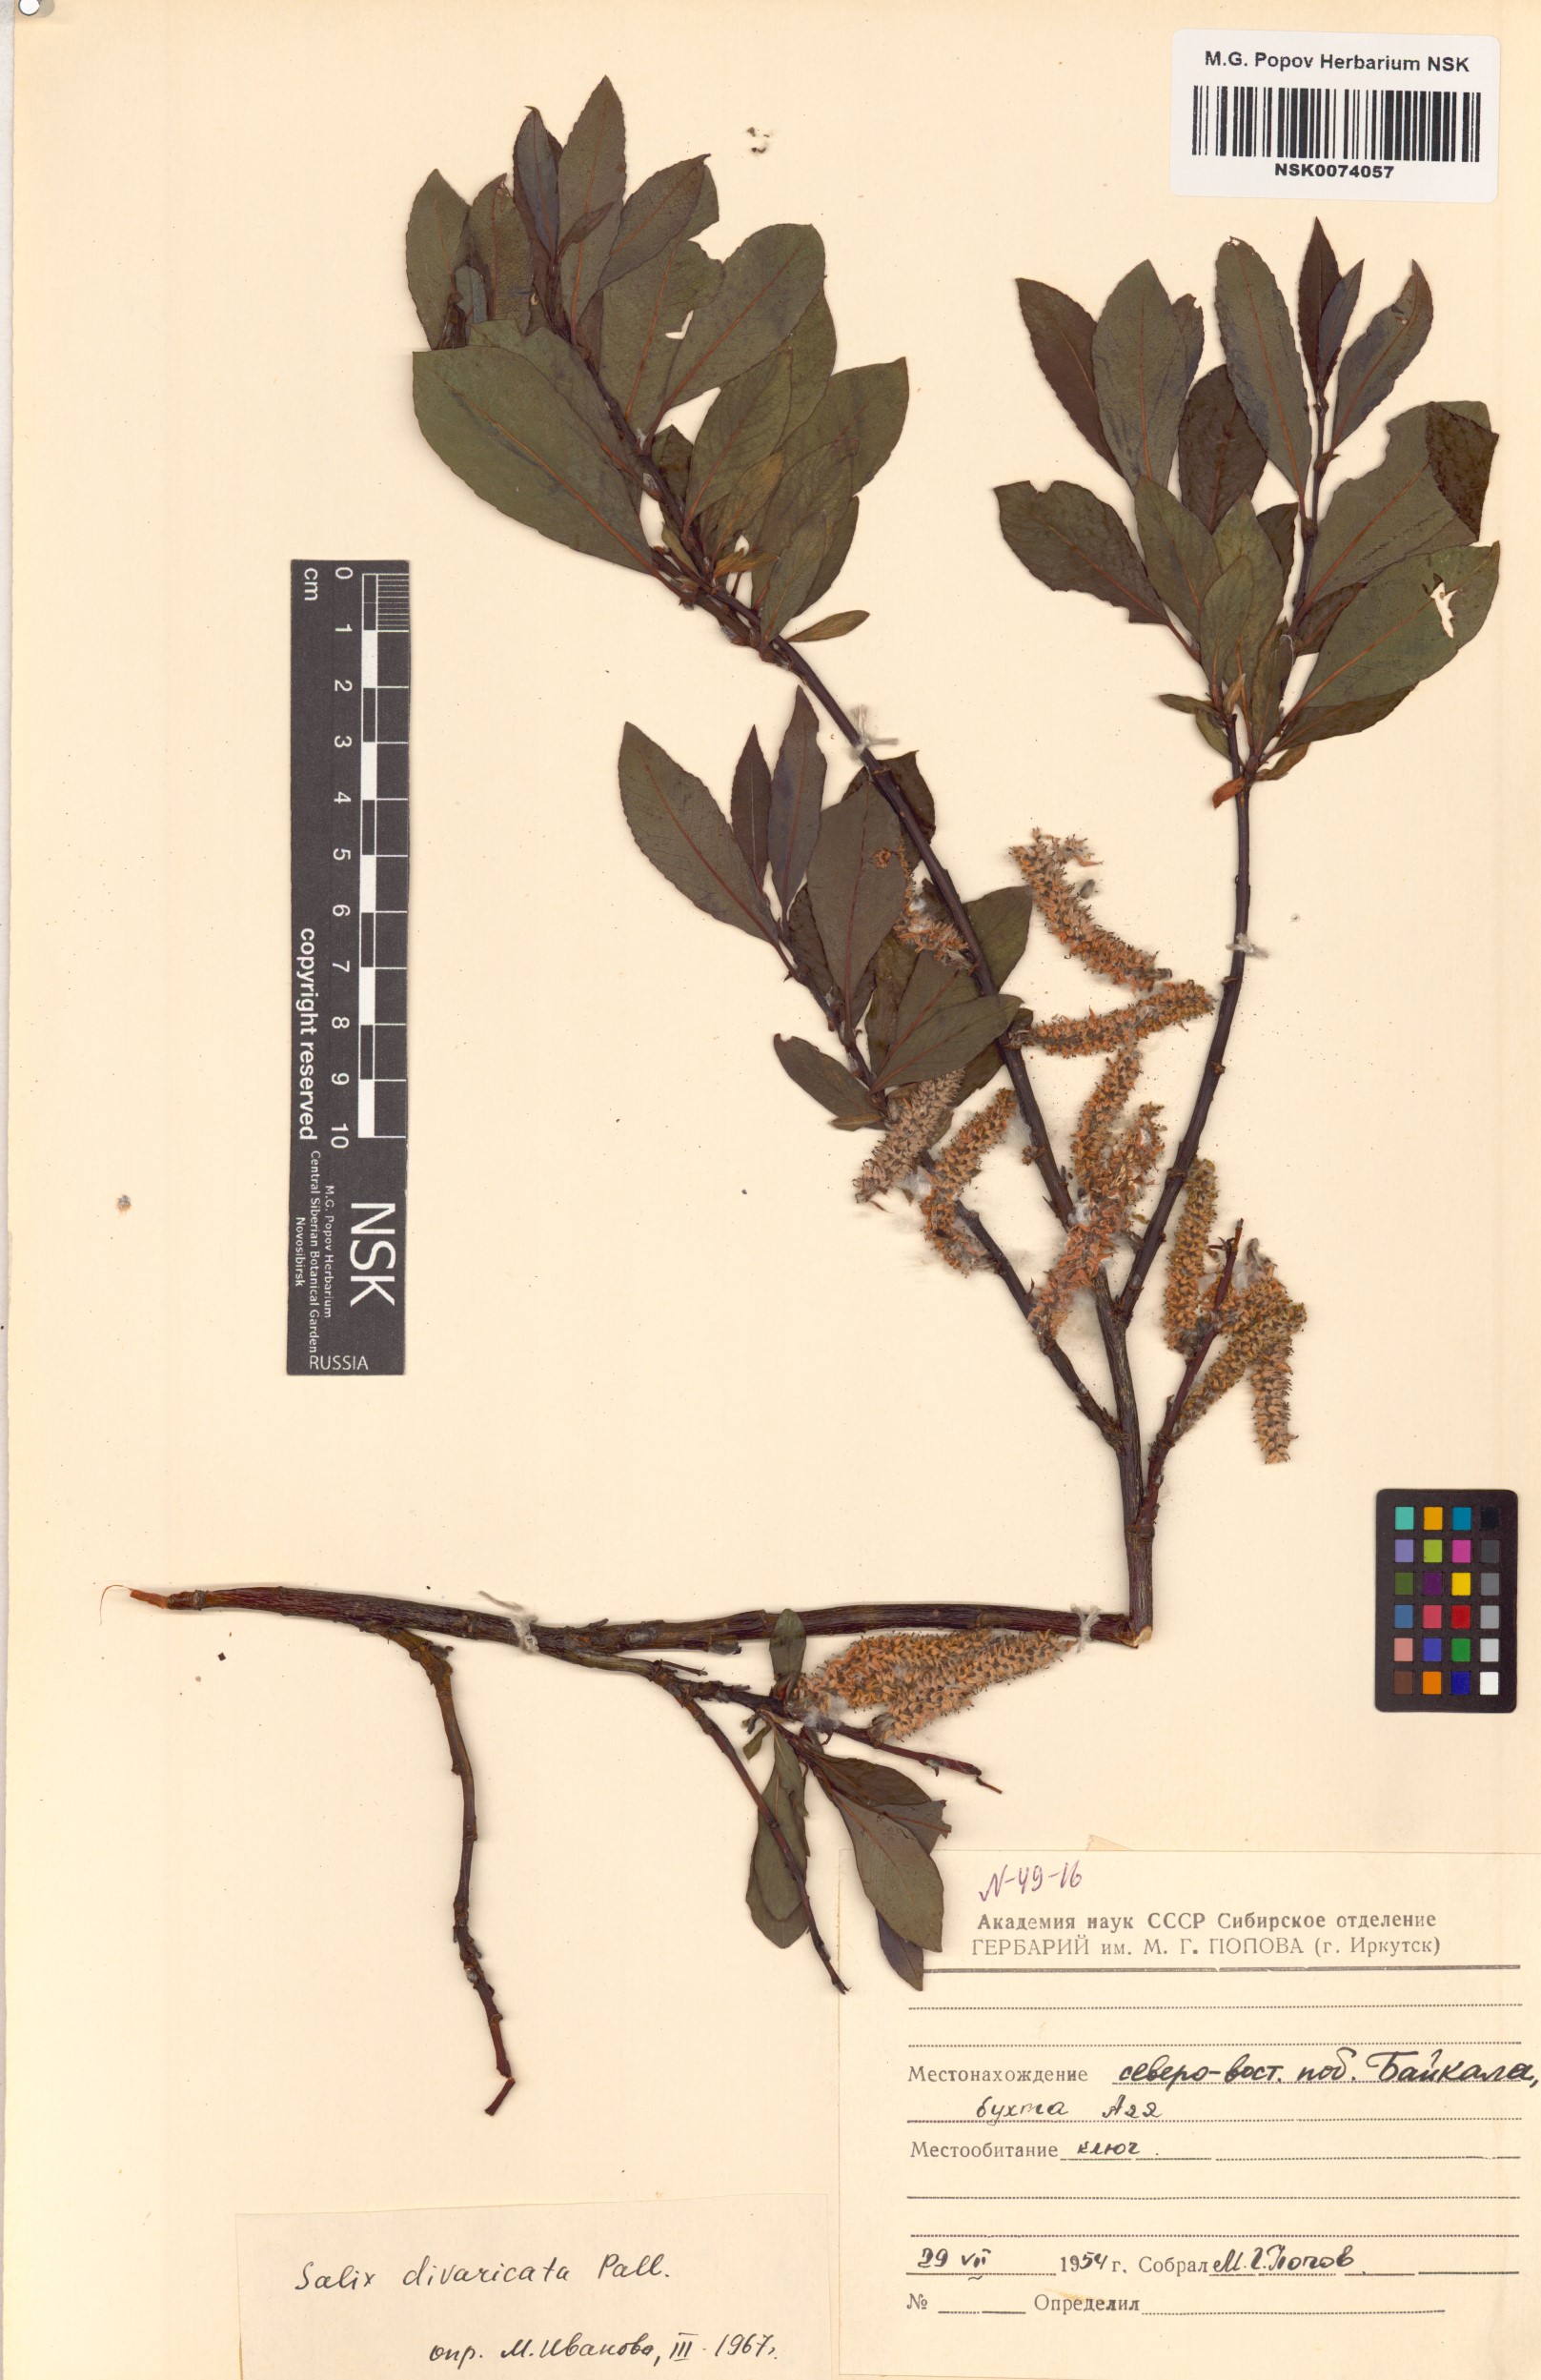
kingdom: Plantae
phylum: Tracheophyta
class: Magnoliopsida
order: Malpighiales
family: Salicaceae
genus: Salix
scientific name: Salix divaricata
